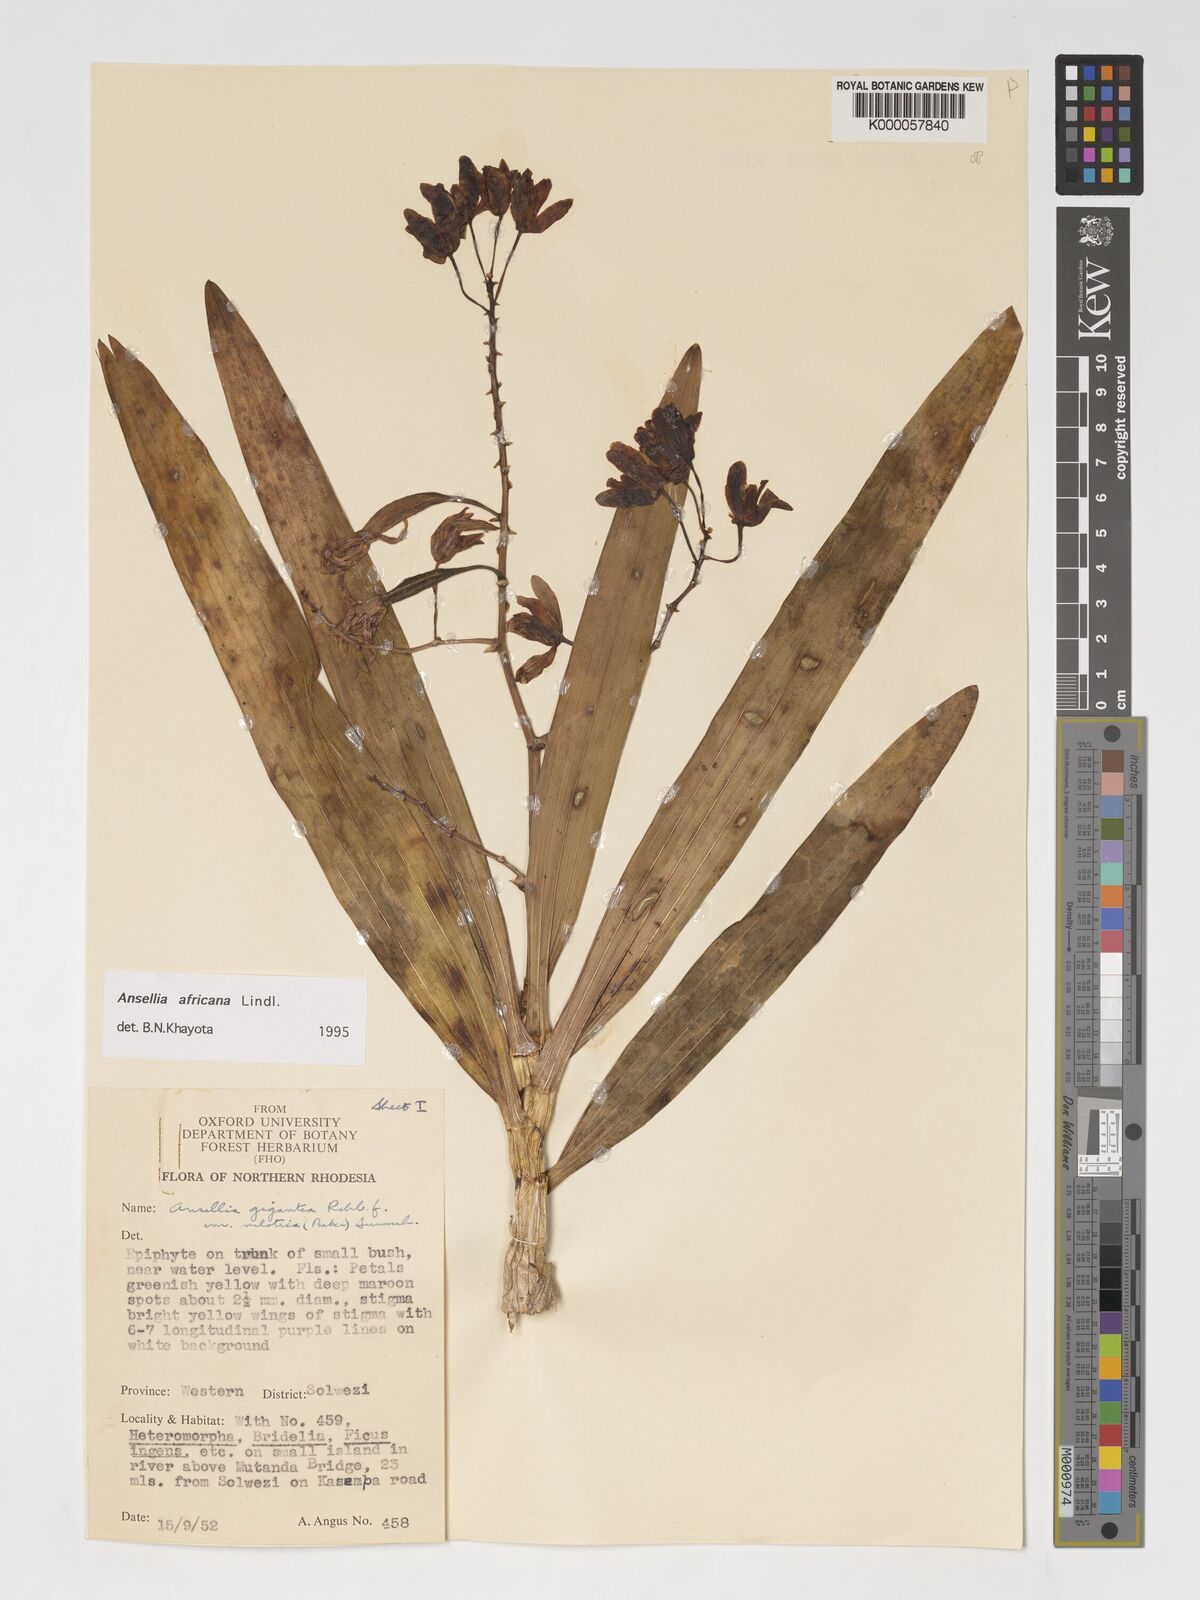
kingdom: Plantae
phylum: Tracheophyta
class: Liliopsida
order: Asparagales
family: Orchidaceae
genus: Ansellia
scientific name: Ansellia africana
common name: African ansellia
